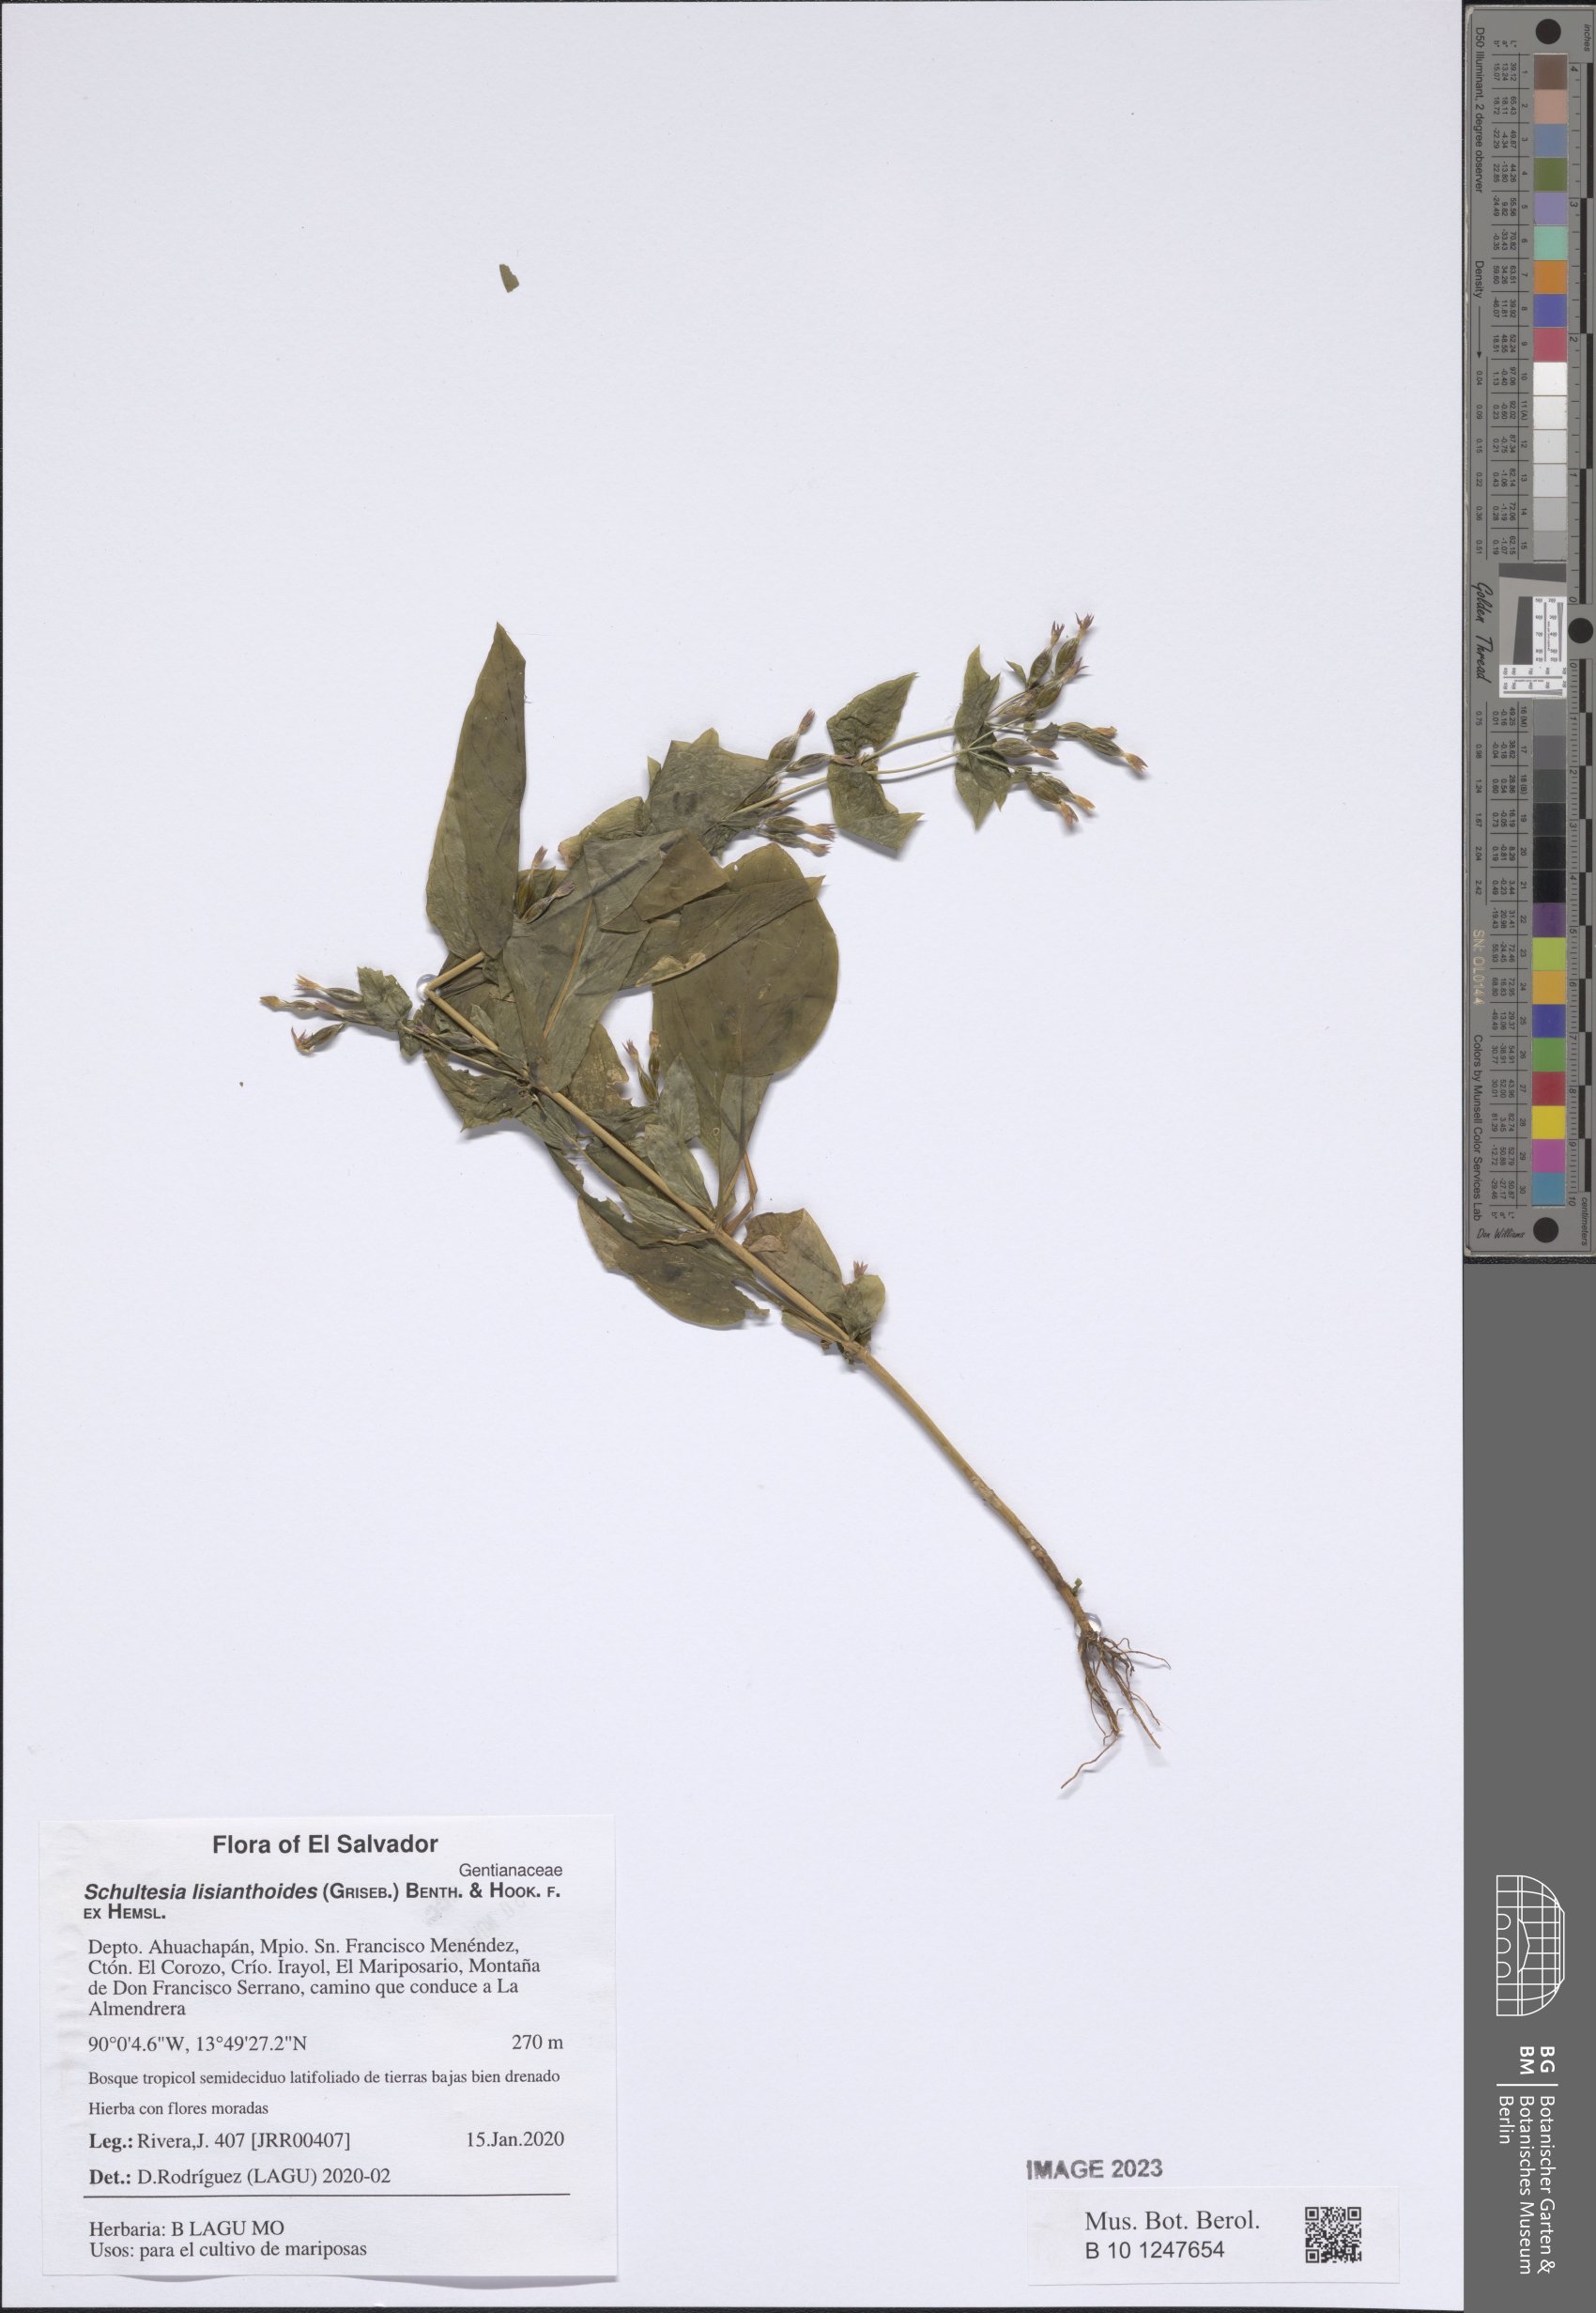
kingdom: Plantae
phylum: Tracheophyta
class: Magnoliopsida
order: Gentianales
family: Gentianaceae
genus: Schultesia
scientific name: Schultesia lisianthoides
